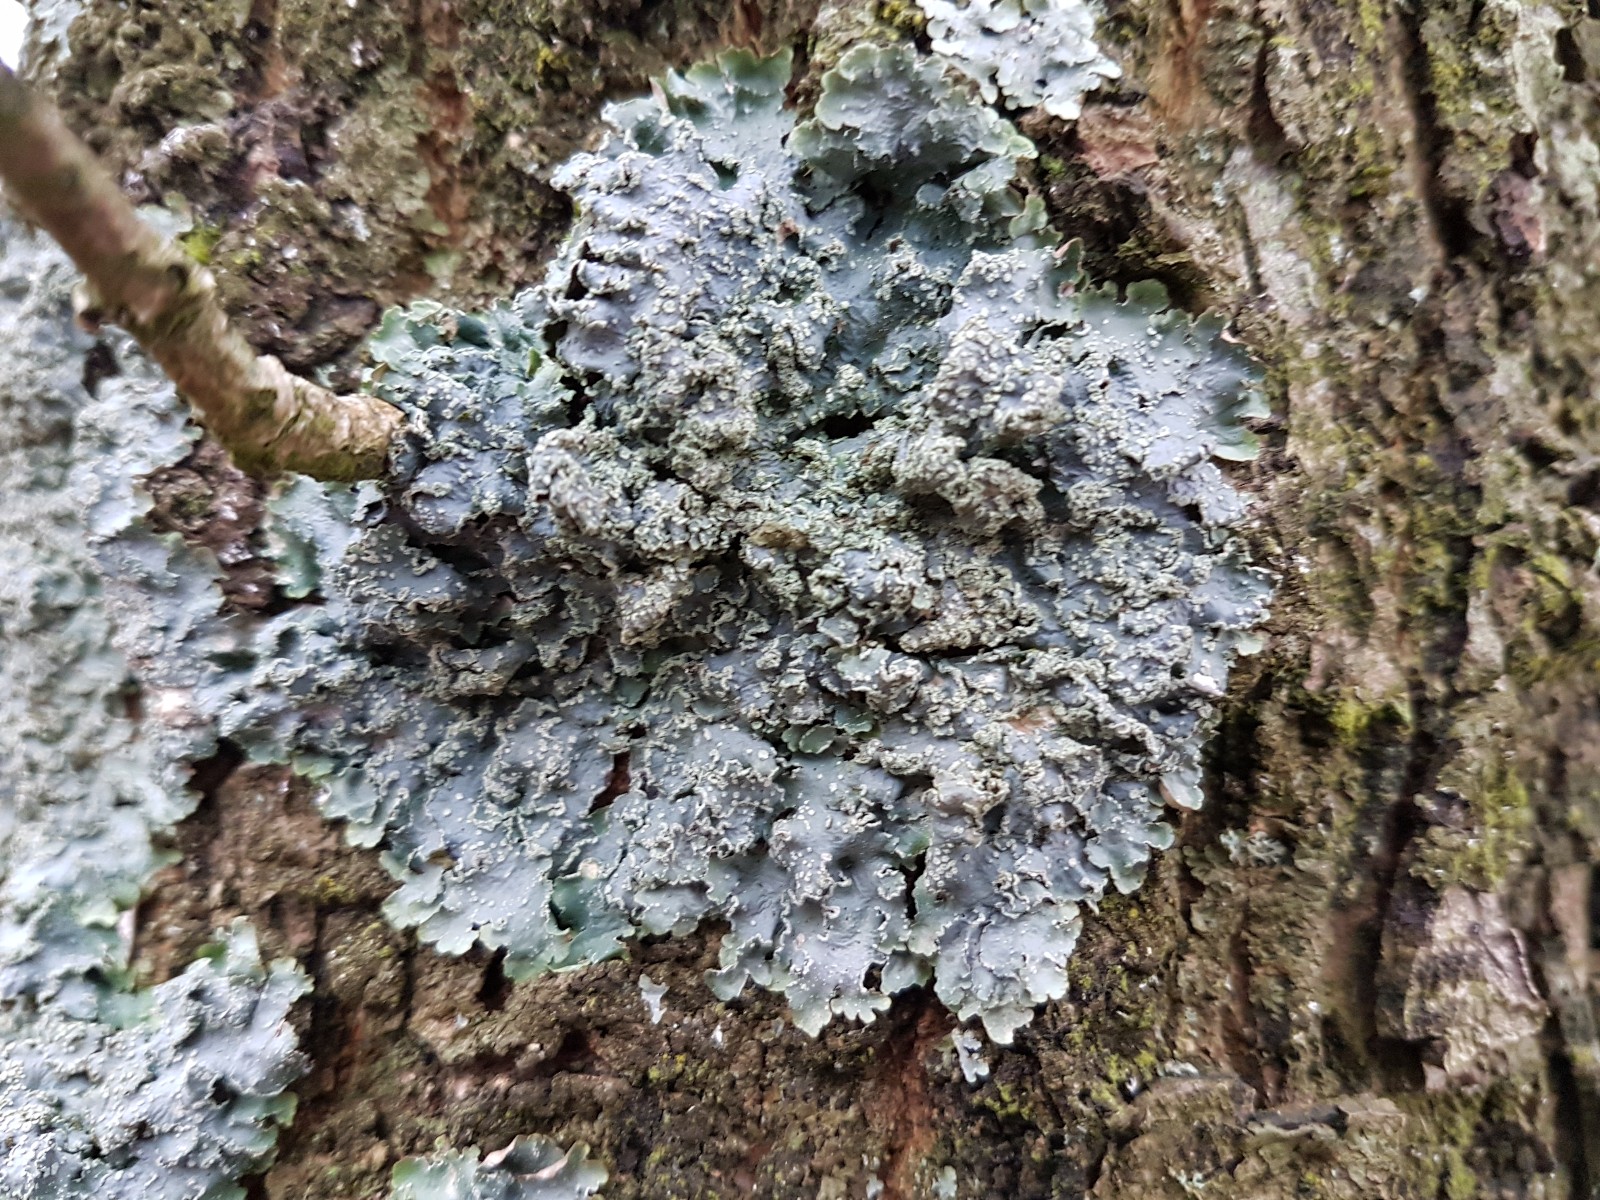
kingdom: Fungi
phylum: Ascomycota
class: Lecanoromycetes
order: Lecanorales
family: Parmeliaceae
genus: Punctelia
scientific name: Punctelia subrudecta
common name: punkt-skållav
